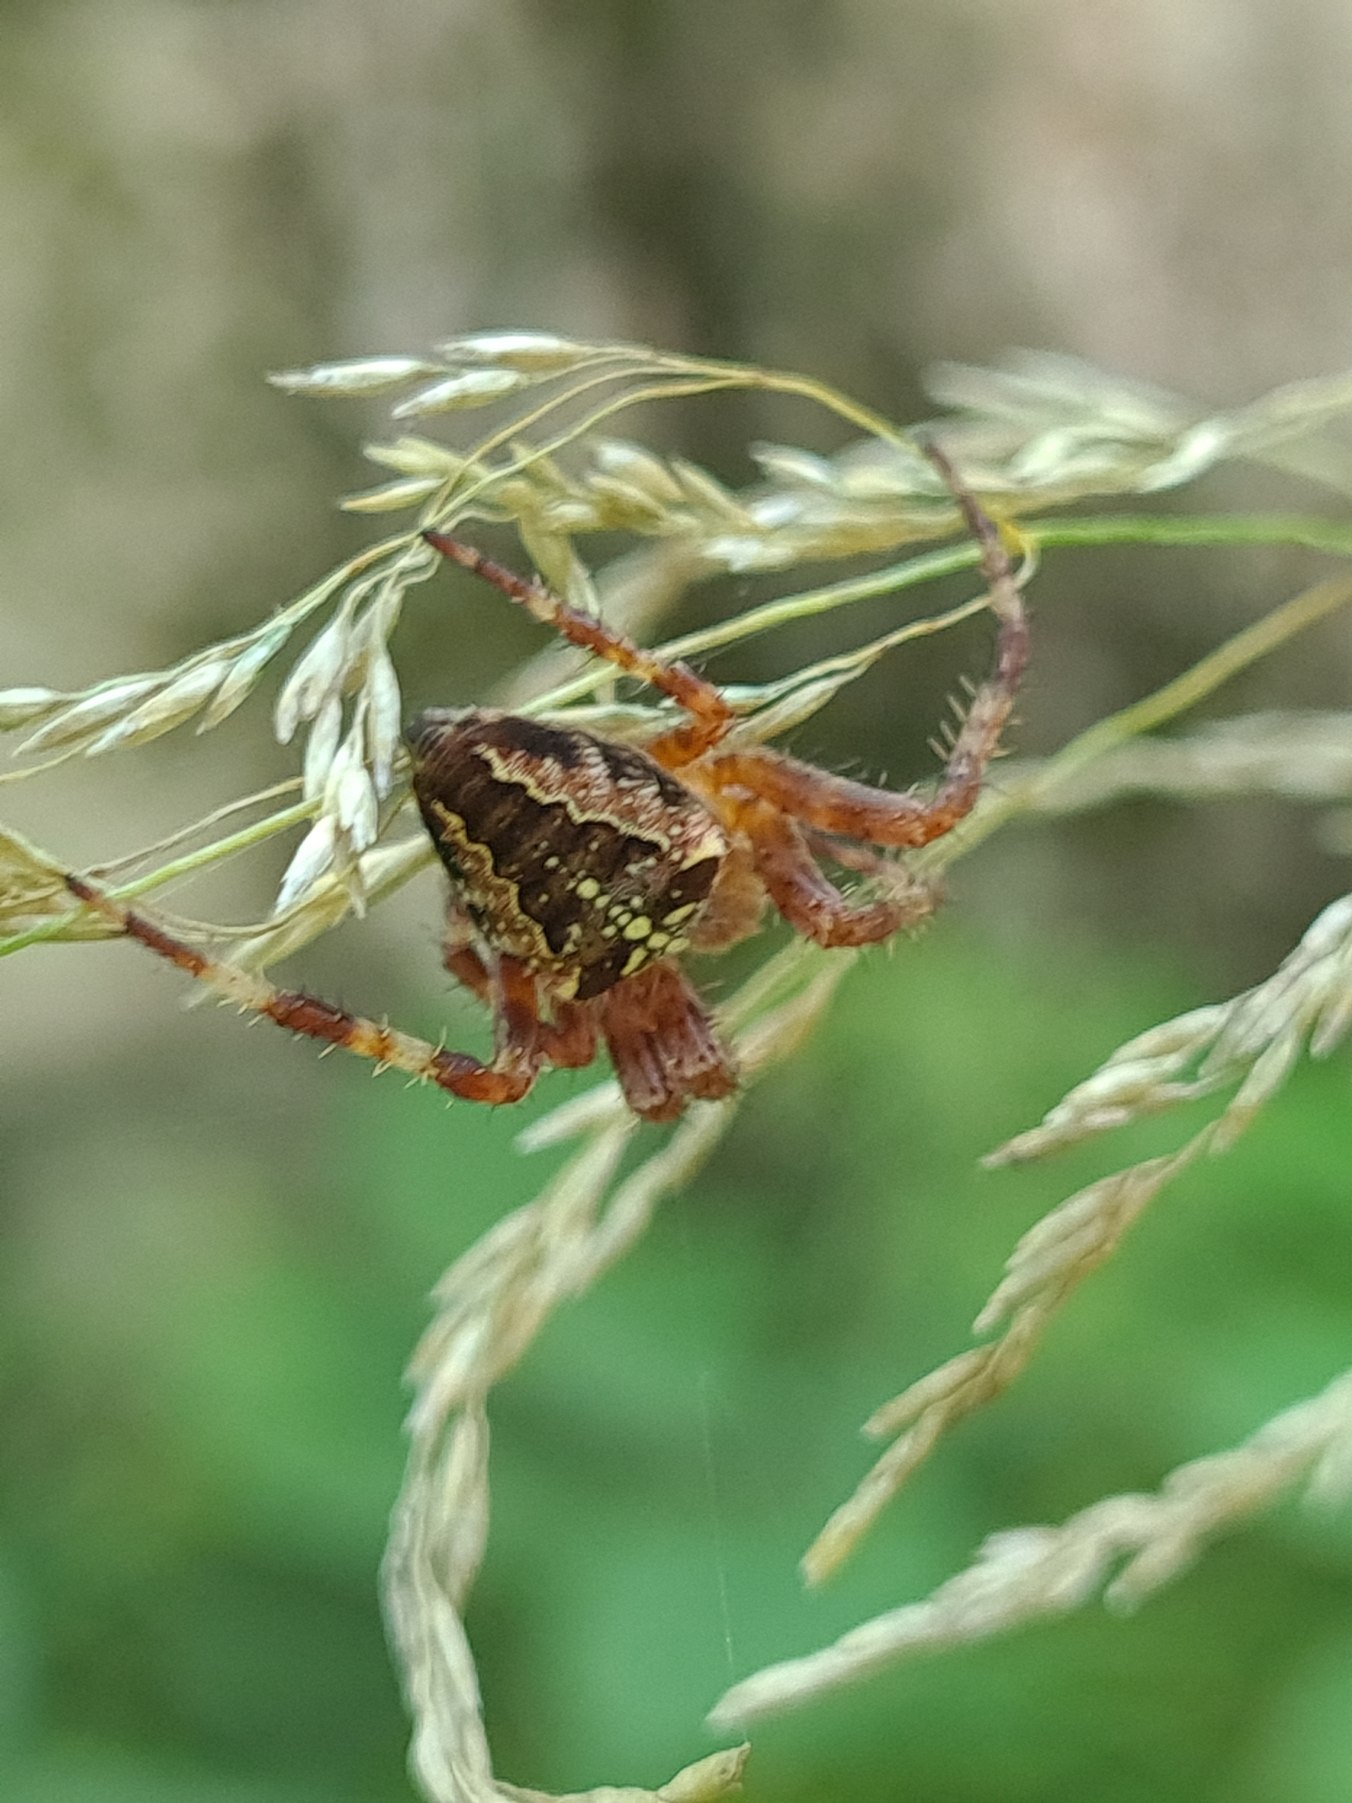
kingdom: Animalia
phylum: Arthropoda
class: Arachnida
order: Araneae
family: Araneidae
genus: Araneus
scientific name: Araneus diadematus
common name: Korsedderkop
